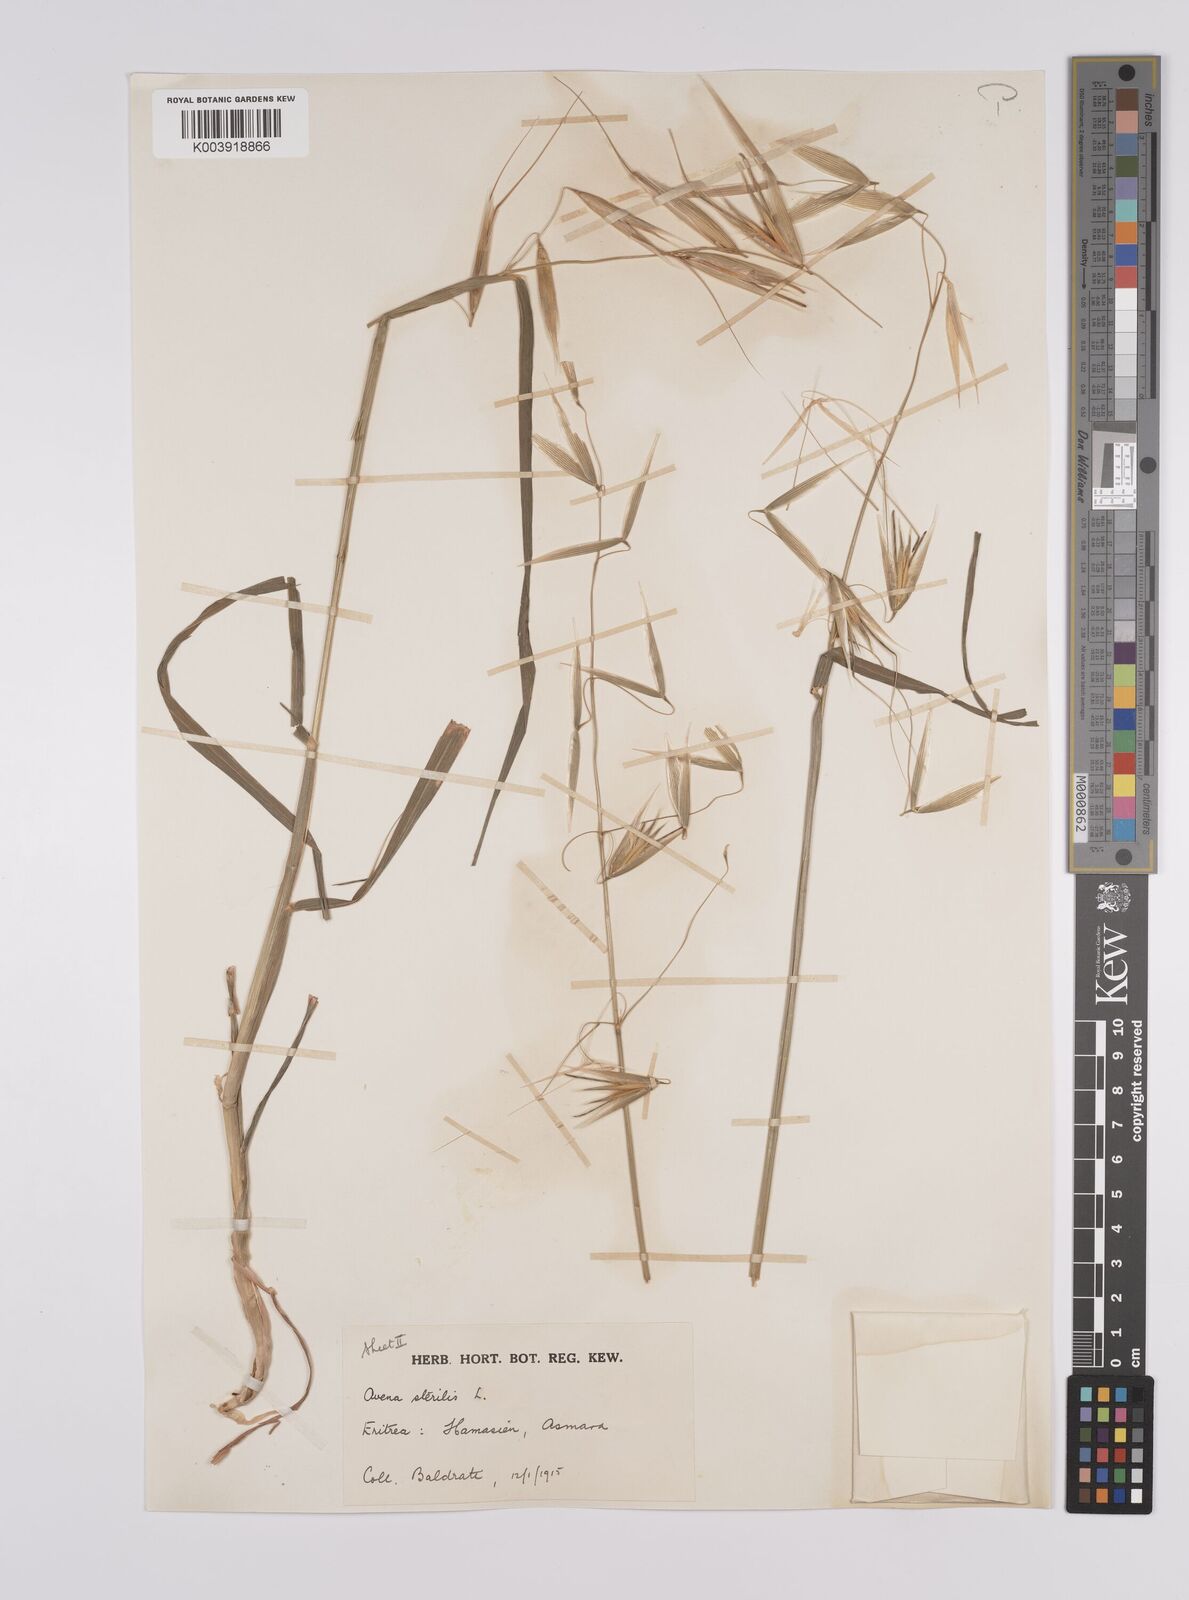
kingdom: Plantae
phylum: Tracheophyta
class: Liliopsida
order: Poales
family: Poaceae
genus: Avena
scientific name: Avena sterilis
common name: Animated oat
